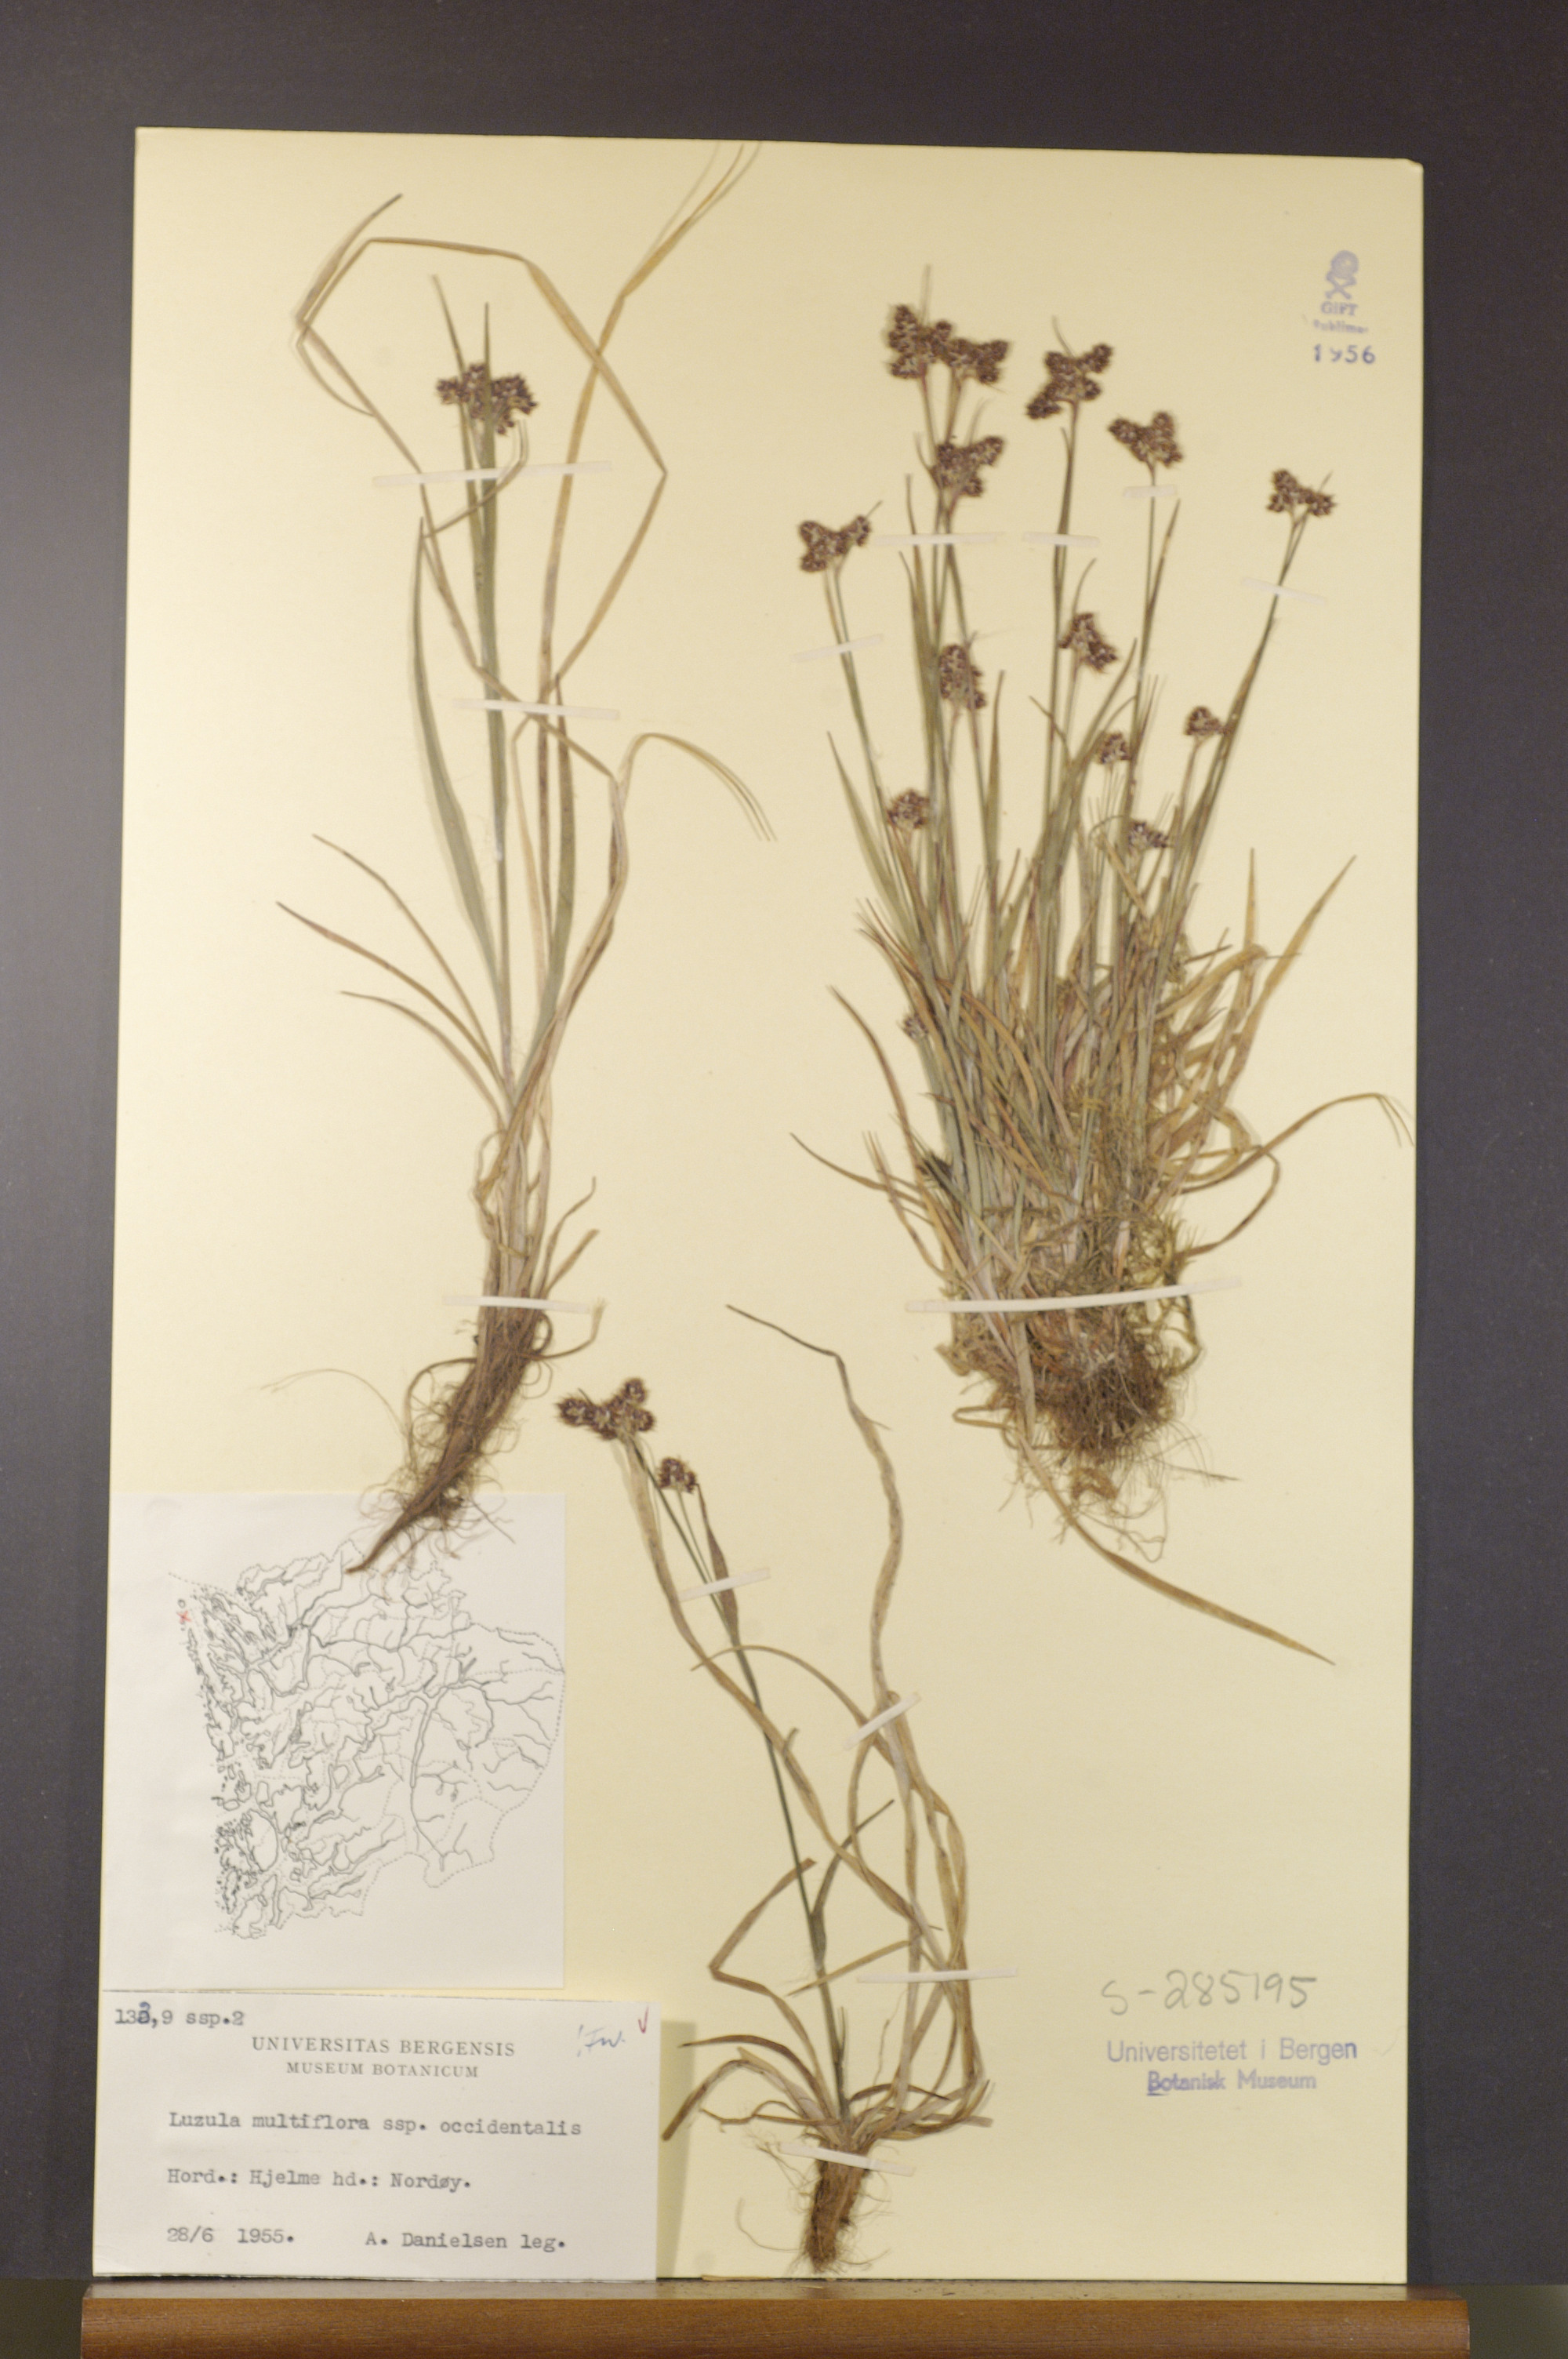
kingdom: Plantae
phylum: Tracheophyta
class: Liliopsida
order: Poales
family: Juncaceae
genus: Luzula
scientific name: Luzula multiflora
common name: Heath wood-rush
